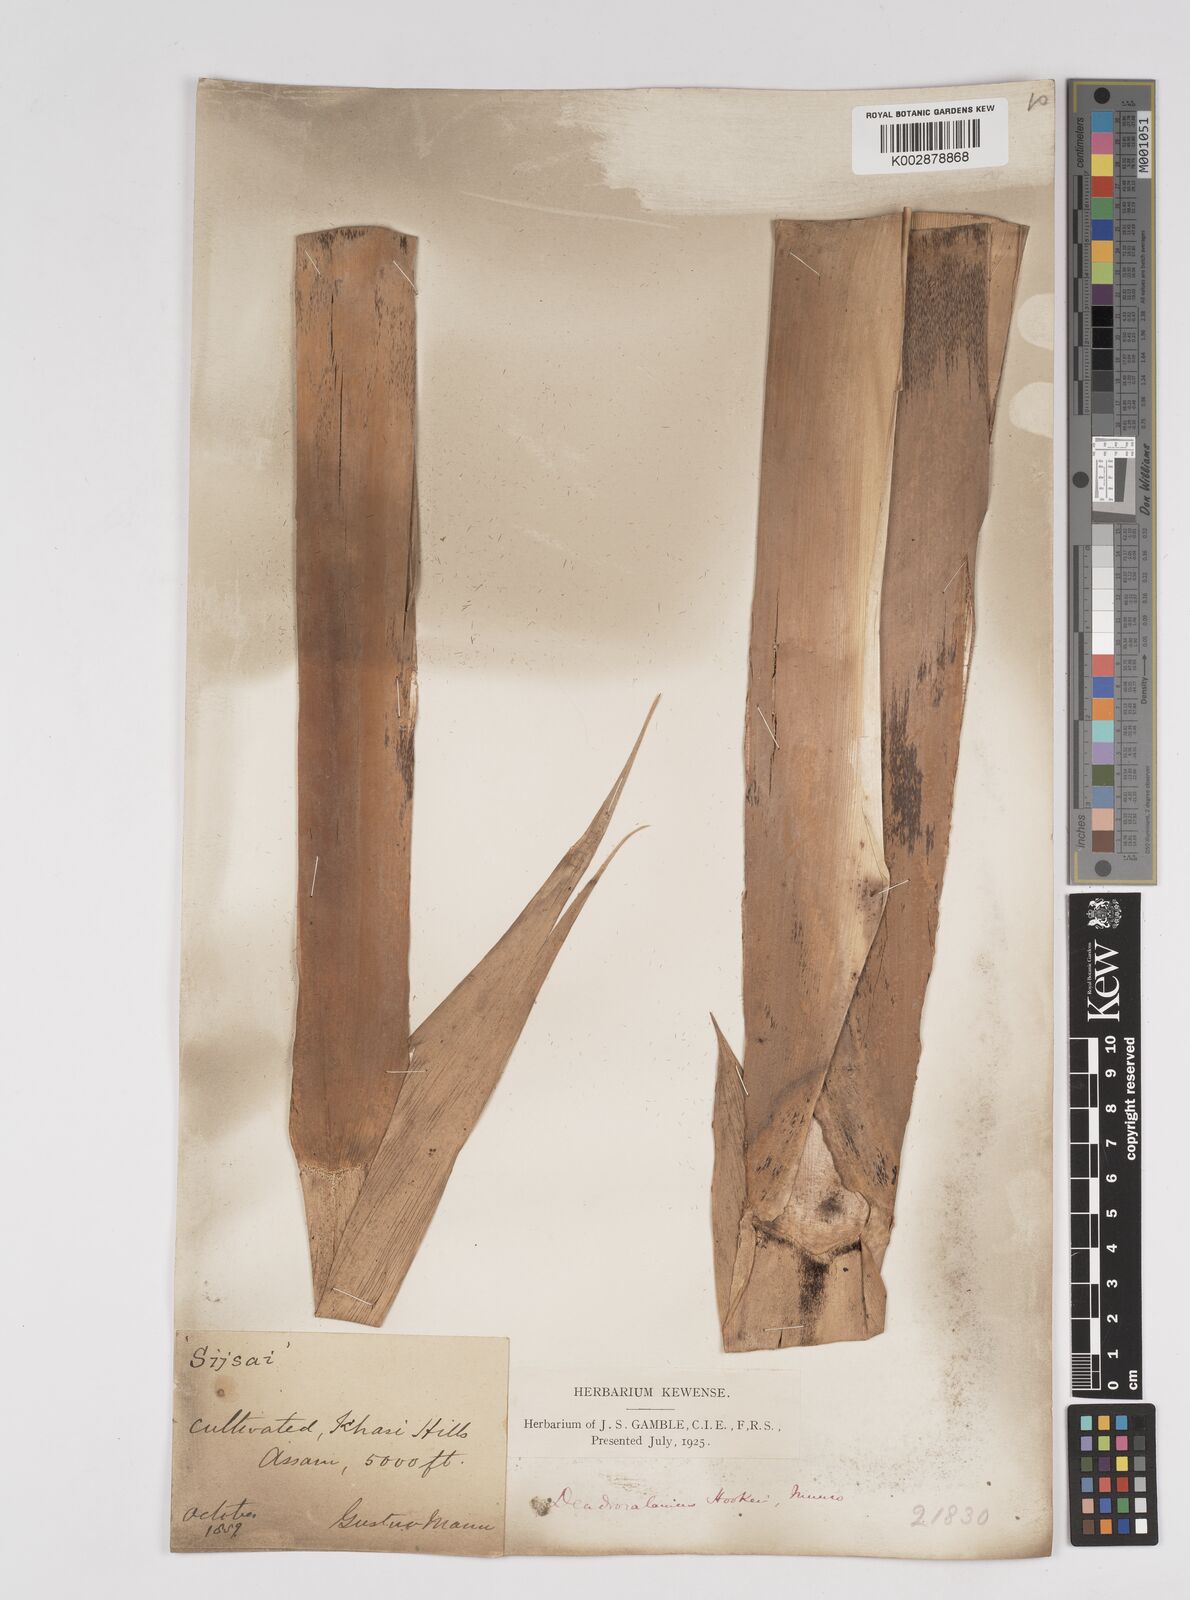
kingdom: Plantae
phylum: Tracheophyta
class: Liliopsida
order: Poales
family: Poaceae
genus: Dendrocalamus
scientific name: Dendrocalamus hookeri
